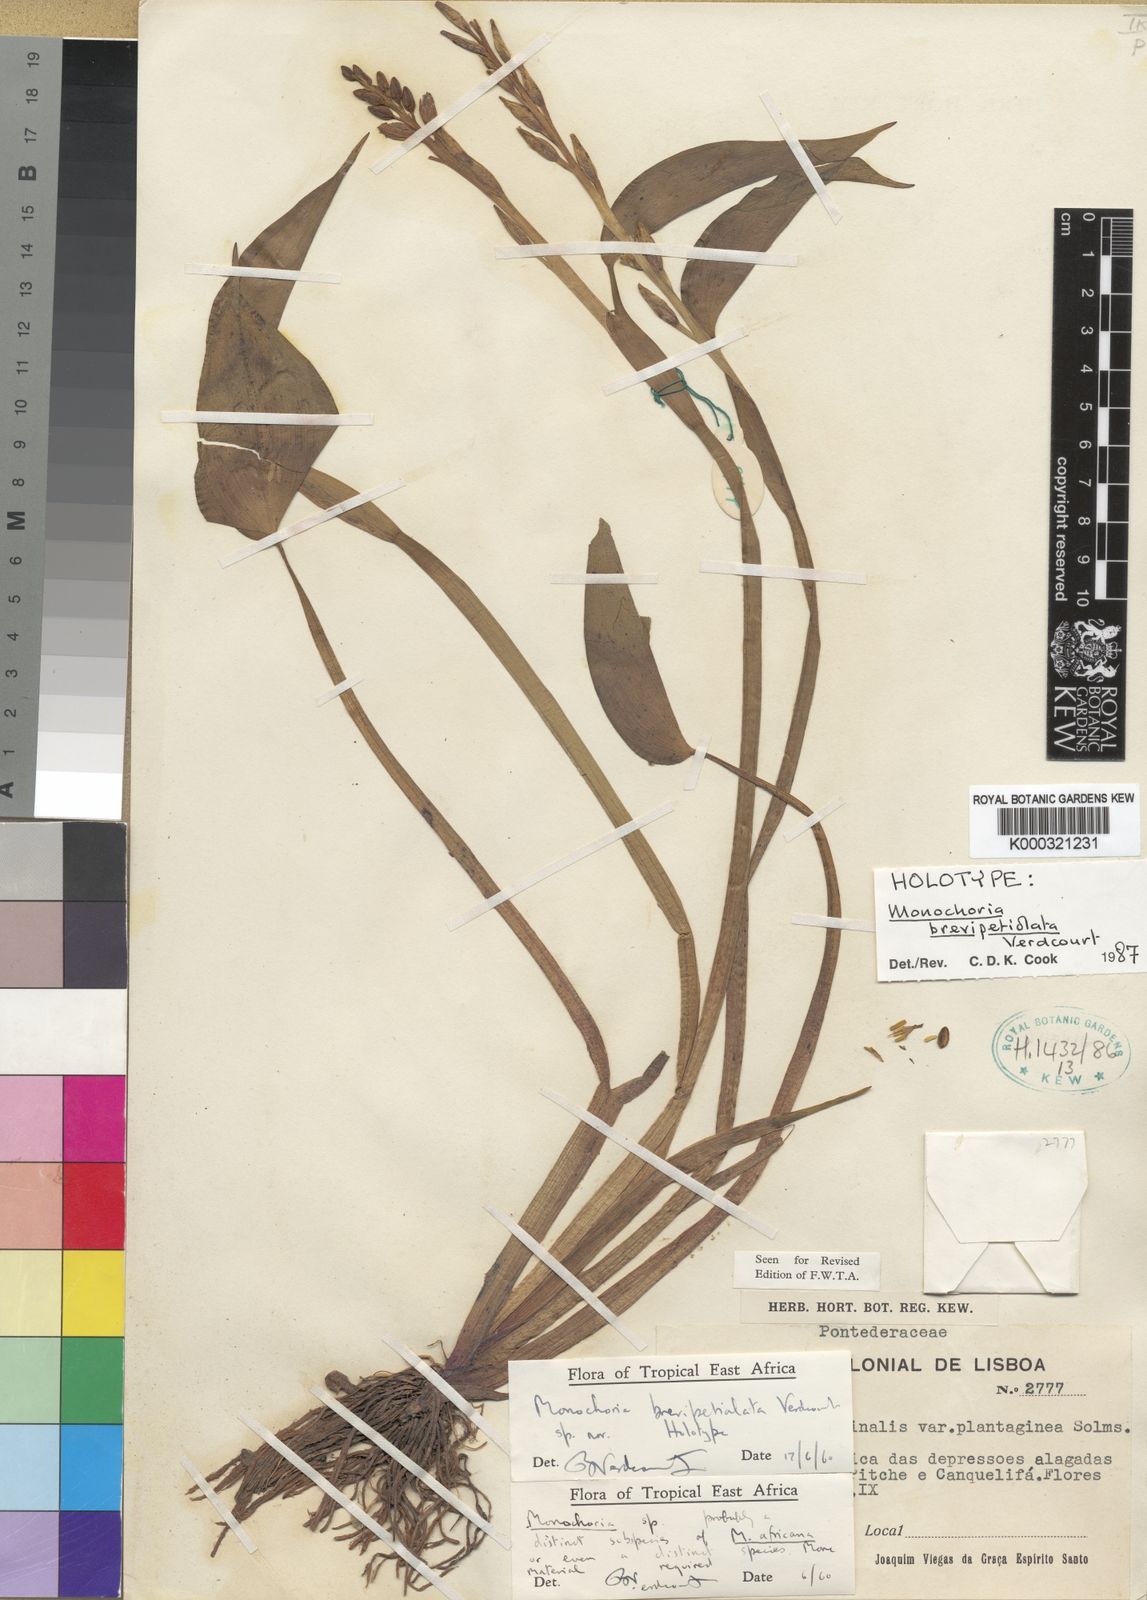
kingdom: Plantae
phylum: Tracheophyta
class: Liliopsida
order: Commelinales
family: Pontederiaceae
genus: Pontederia
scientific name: Pontederia brevipetiolata
